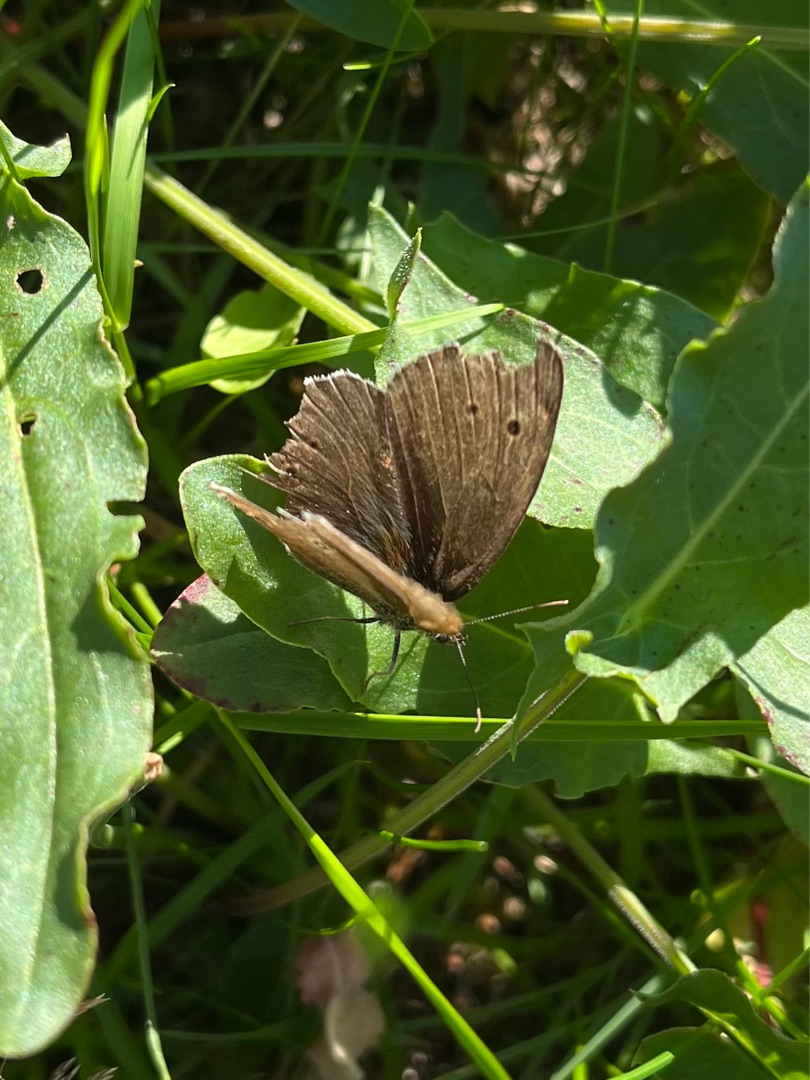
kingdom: Animalia
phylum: Arthropoda
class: Insecta
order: Lepidoptera
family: Nymphalidae
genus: Aphantopus
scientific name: Aphantopus hyperantus
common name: Engrandøje
